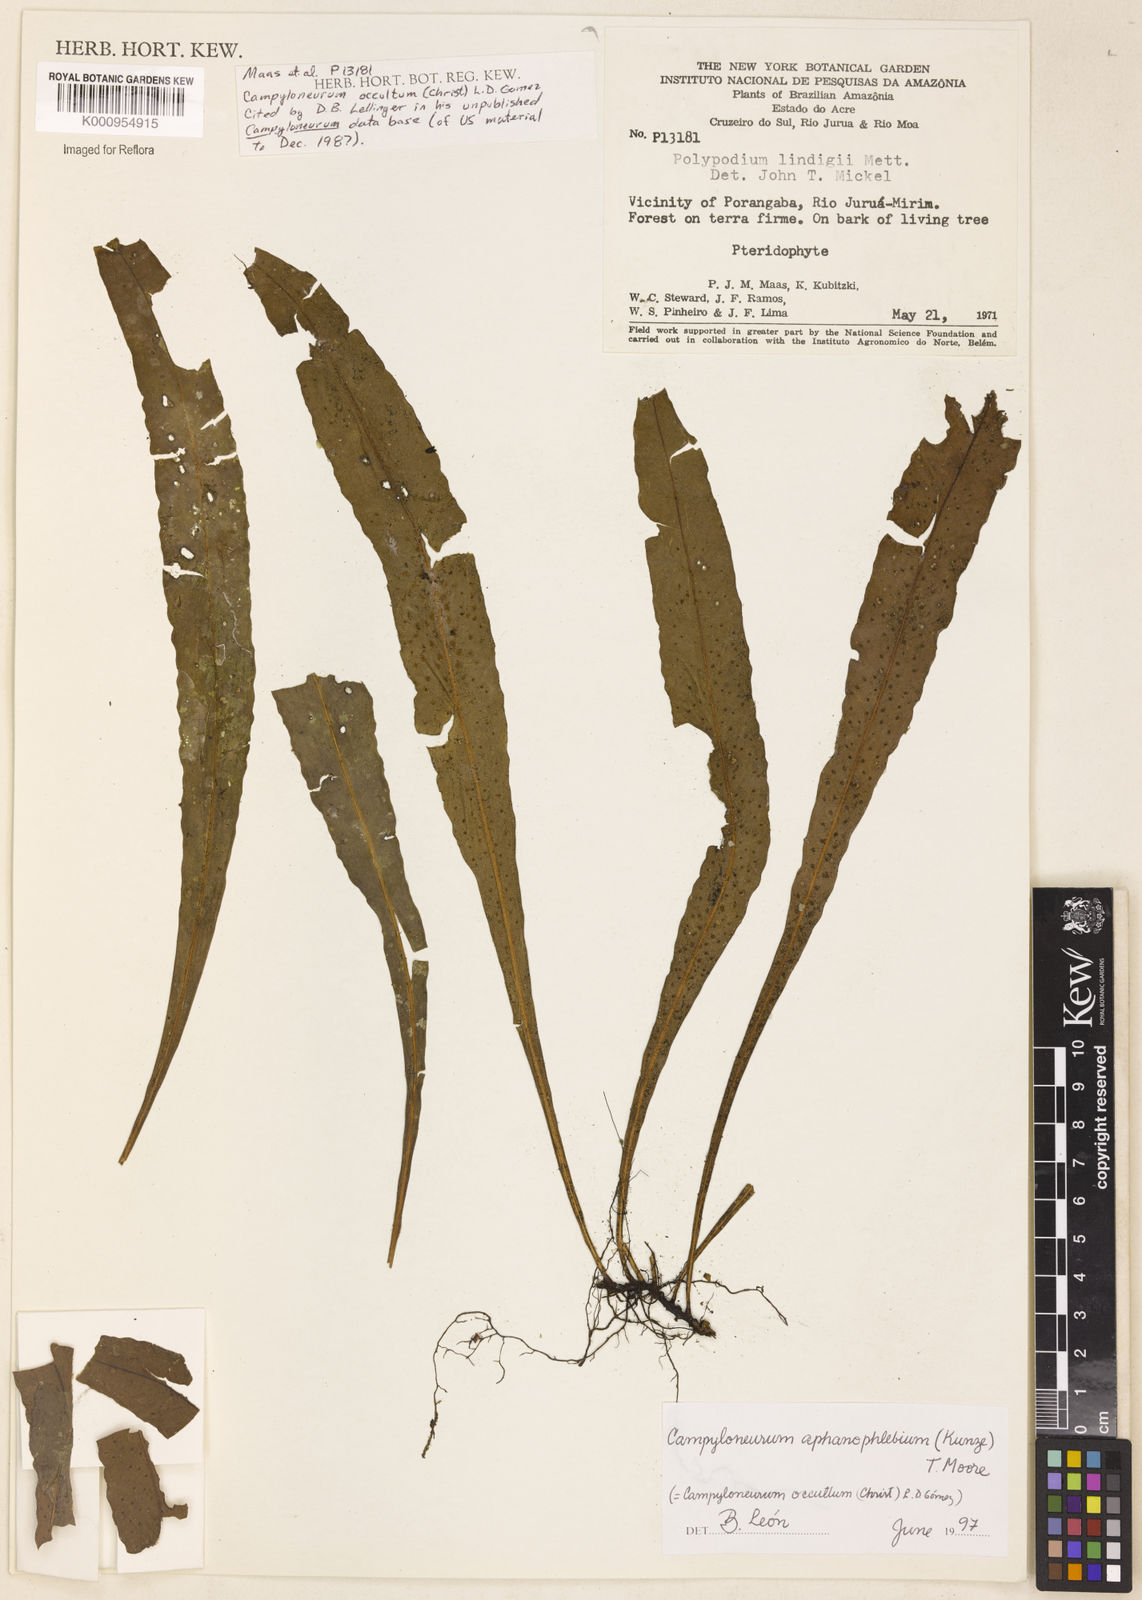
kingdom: Plantae
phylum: Tracheophyta
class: Polypodiopsida
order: Polypodiales
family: Polypodiaceae
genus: Campyloneurum
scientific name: Campyloneurum aphanophlebium
